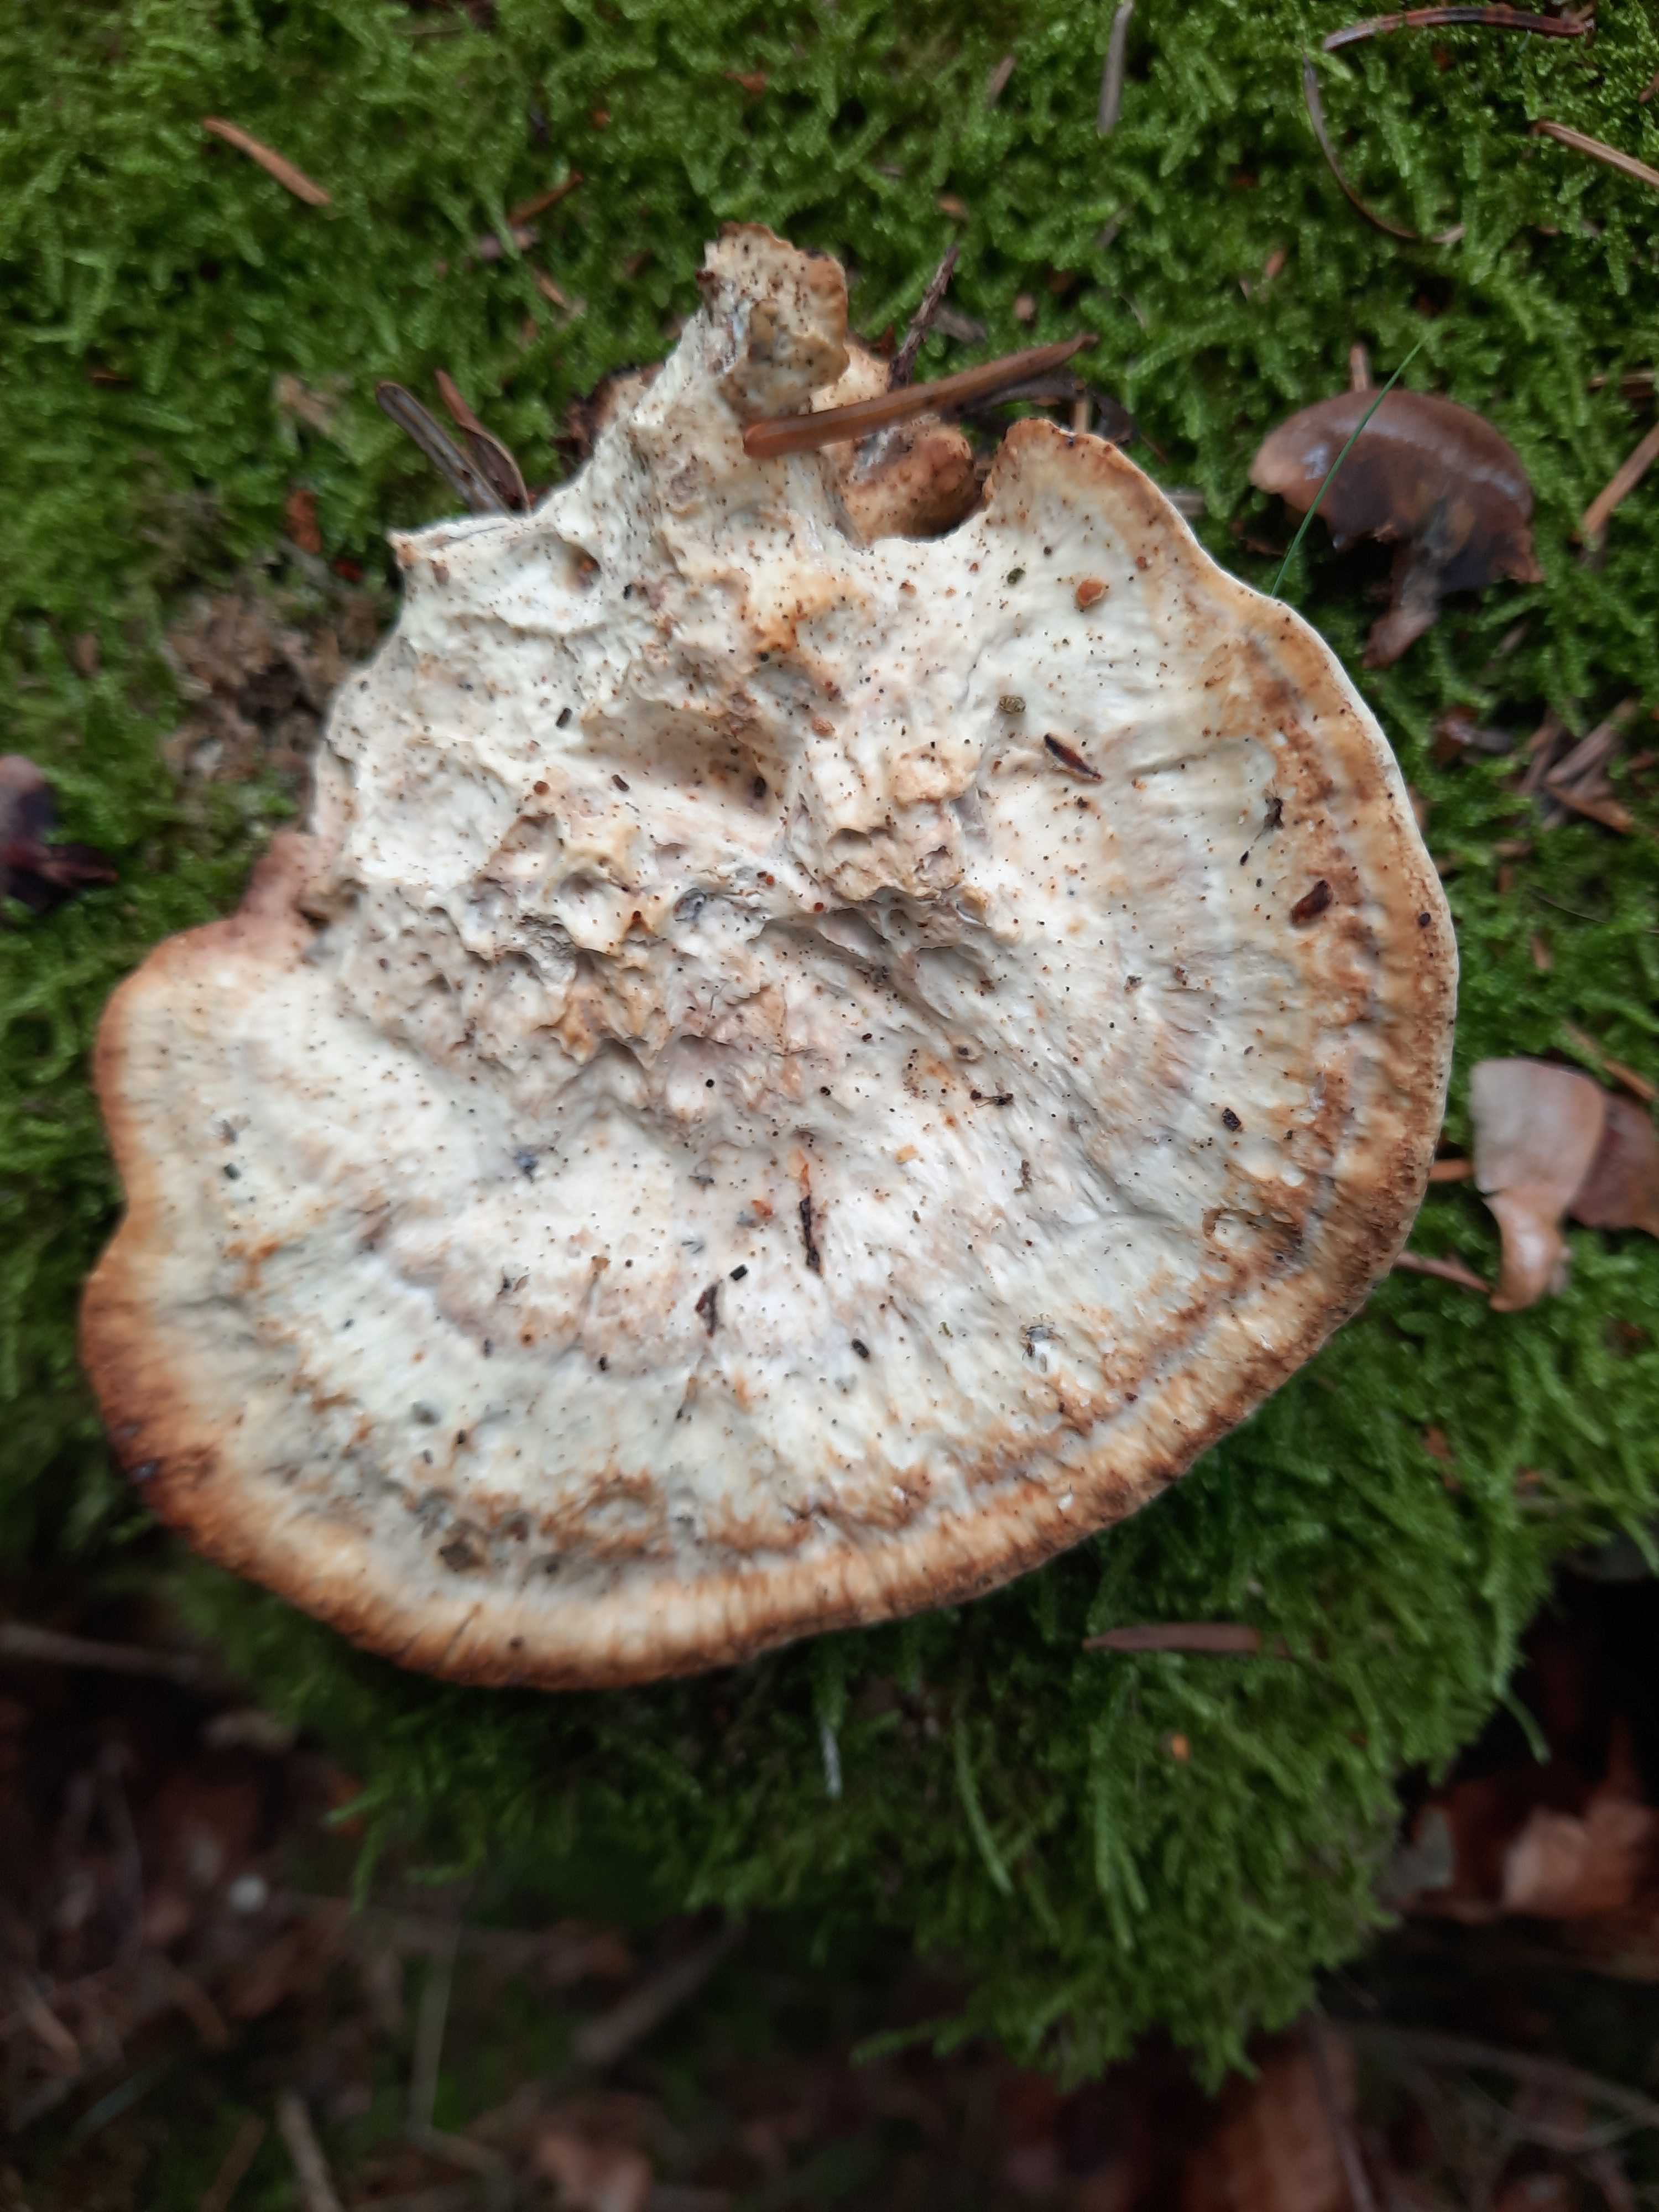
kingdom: Fungi
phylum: Basidiomycota
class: Agaricomycetes
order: Polyporales
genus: Calcipostia
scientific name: Calcipostia guttulata
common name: dråbe-kødporesvamp
